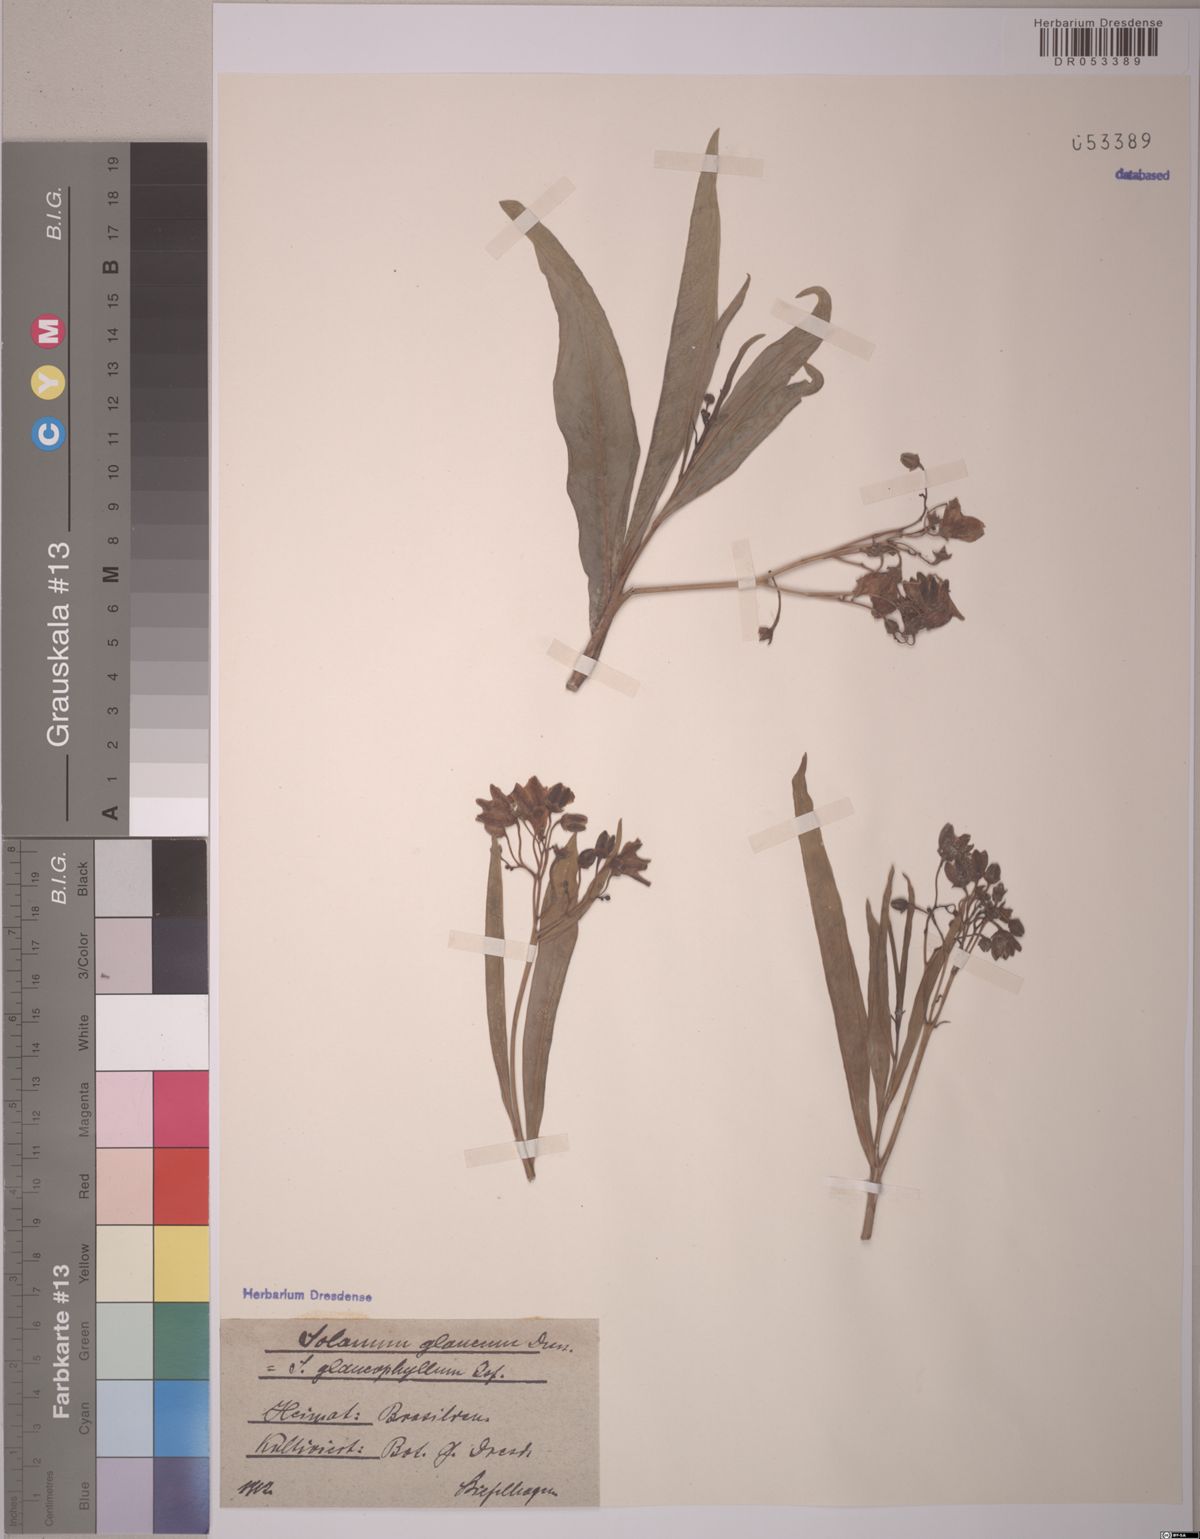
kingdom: Plantae
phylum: Tracheophyta
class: Magnoliopsida
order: Solanales
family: Solanaceae
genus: Solanum
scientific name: Solanum glaucophyllum
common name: Waxyleaf nightshade
